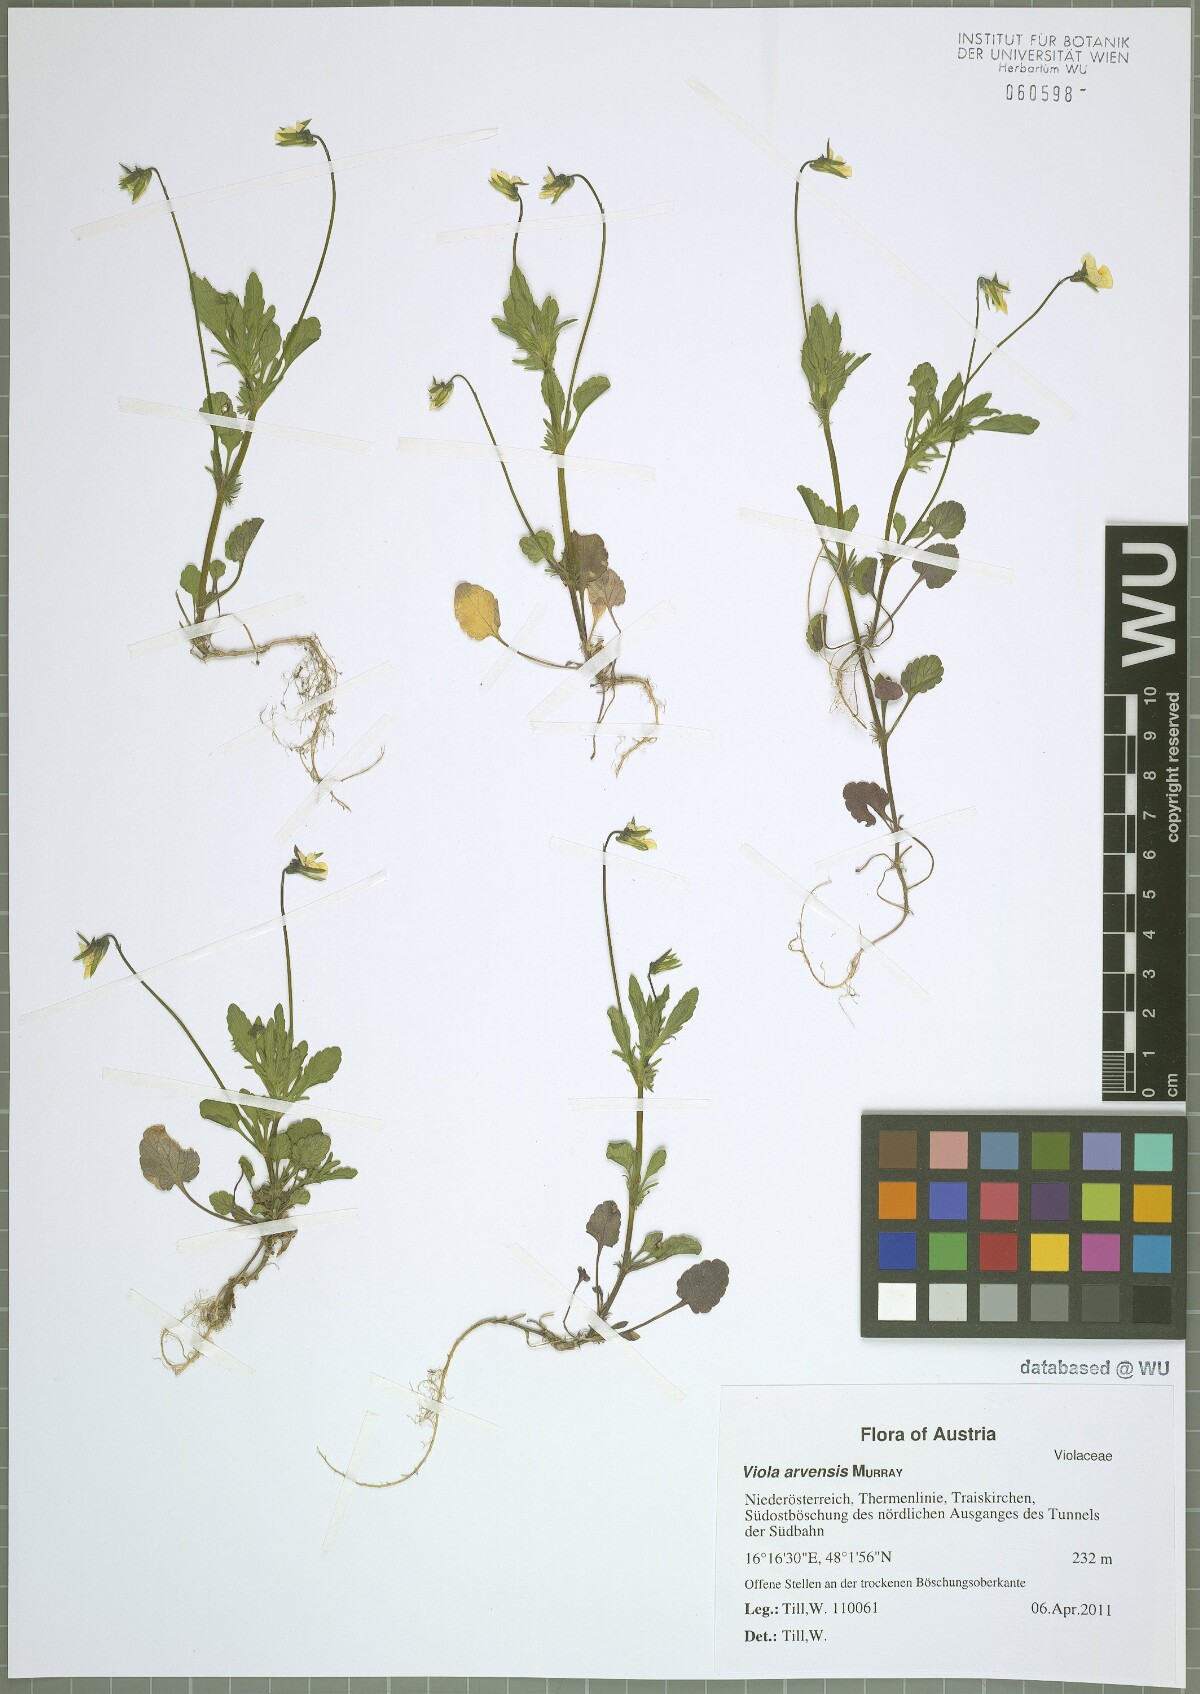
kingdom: Plantae
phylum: Tracheophyta
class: Magnoliopsida
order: Malpighiales
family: Violaceae
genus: Viola
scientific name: Viola arvensis
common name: Field pansy
